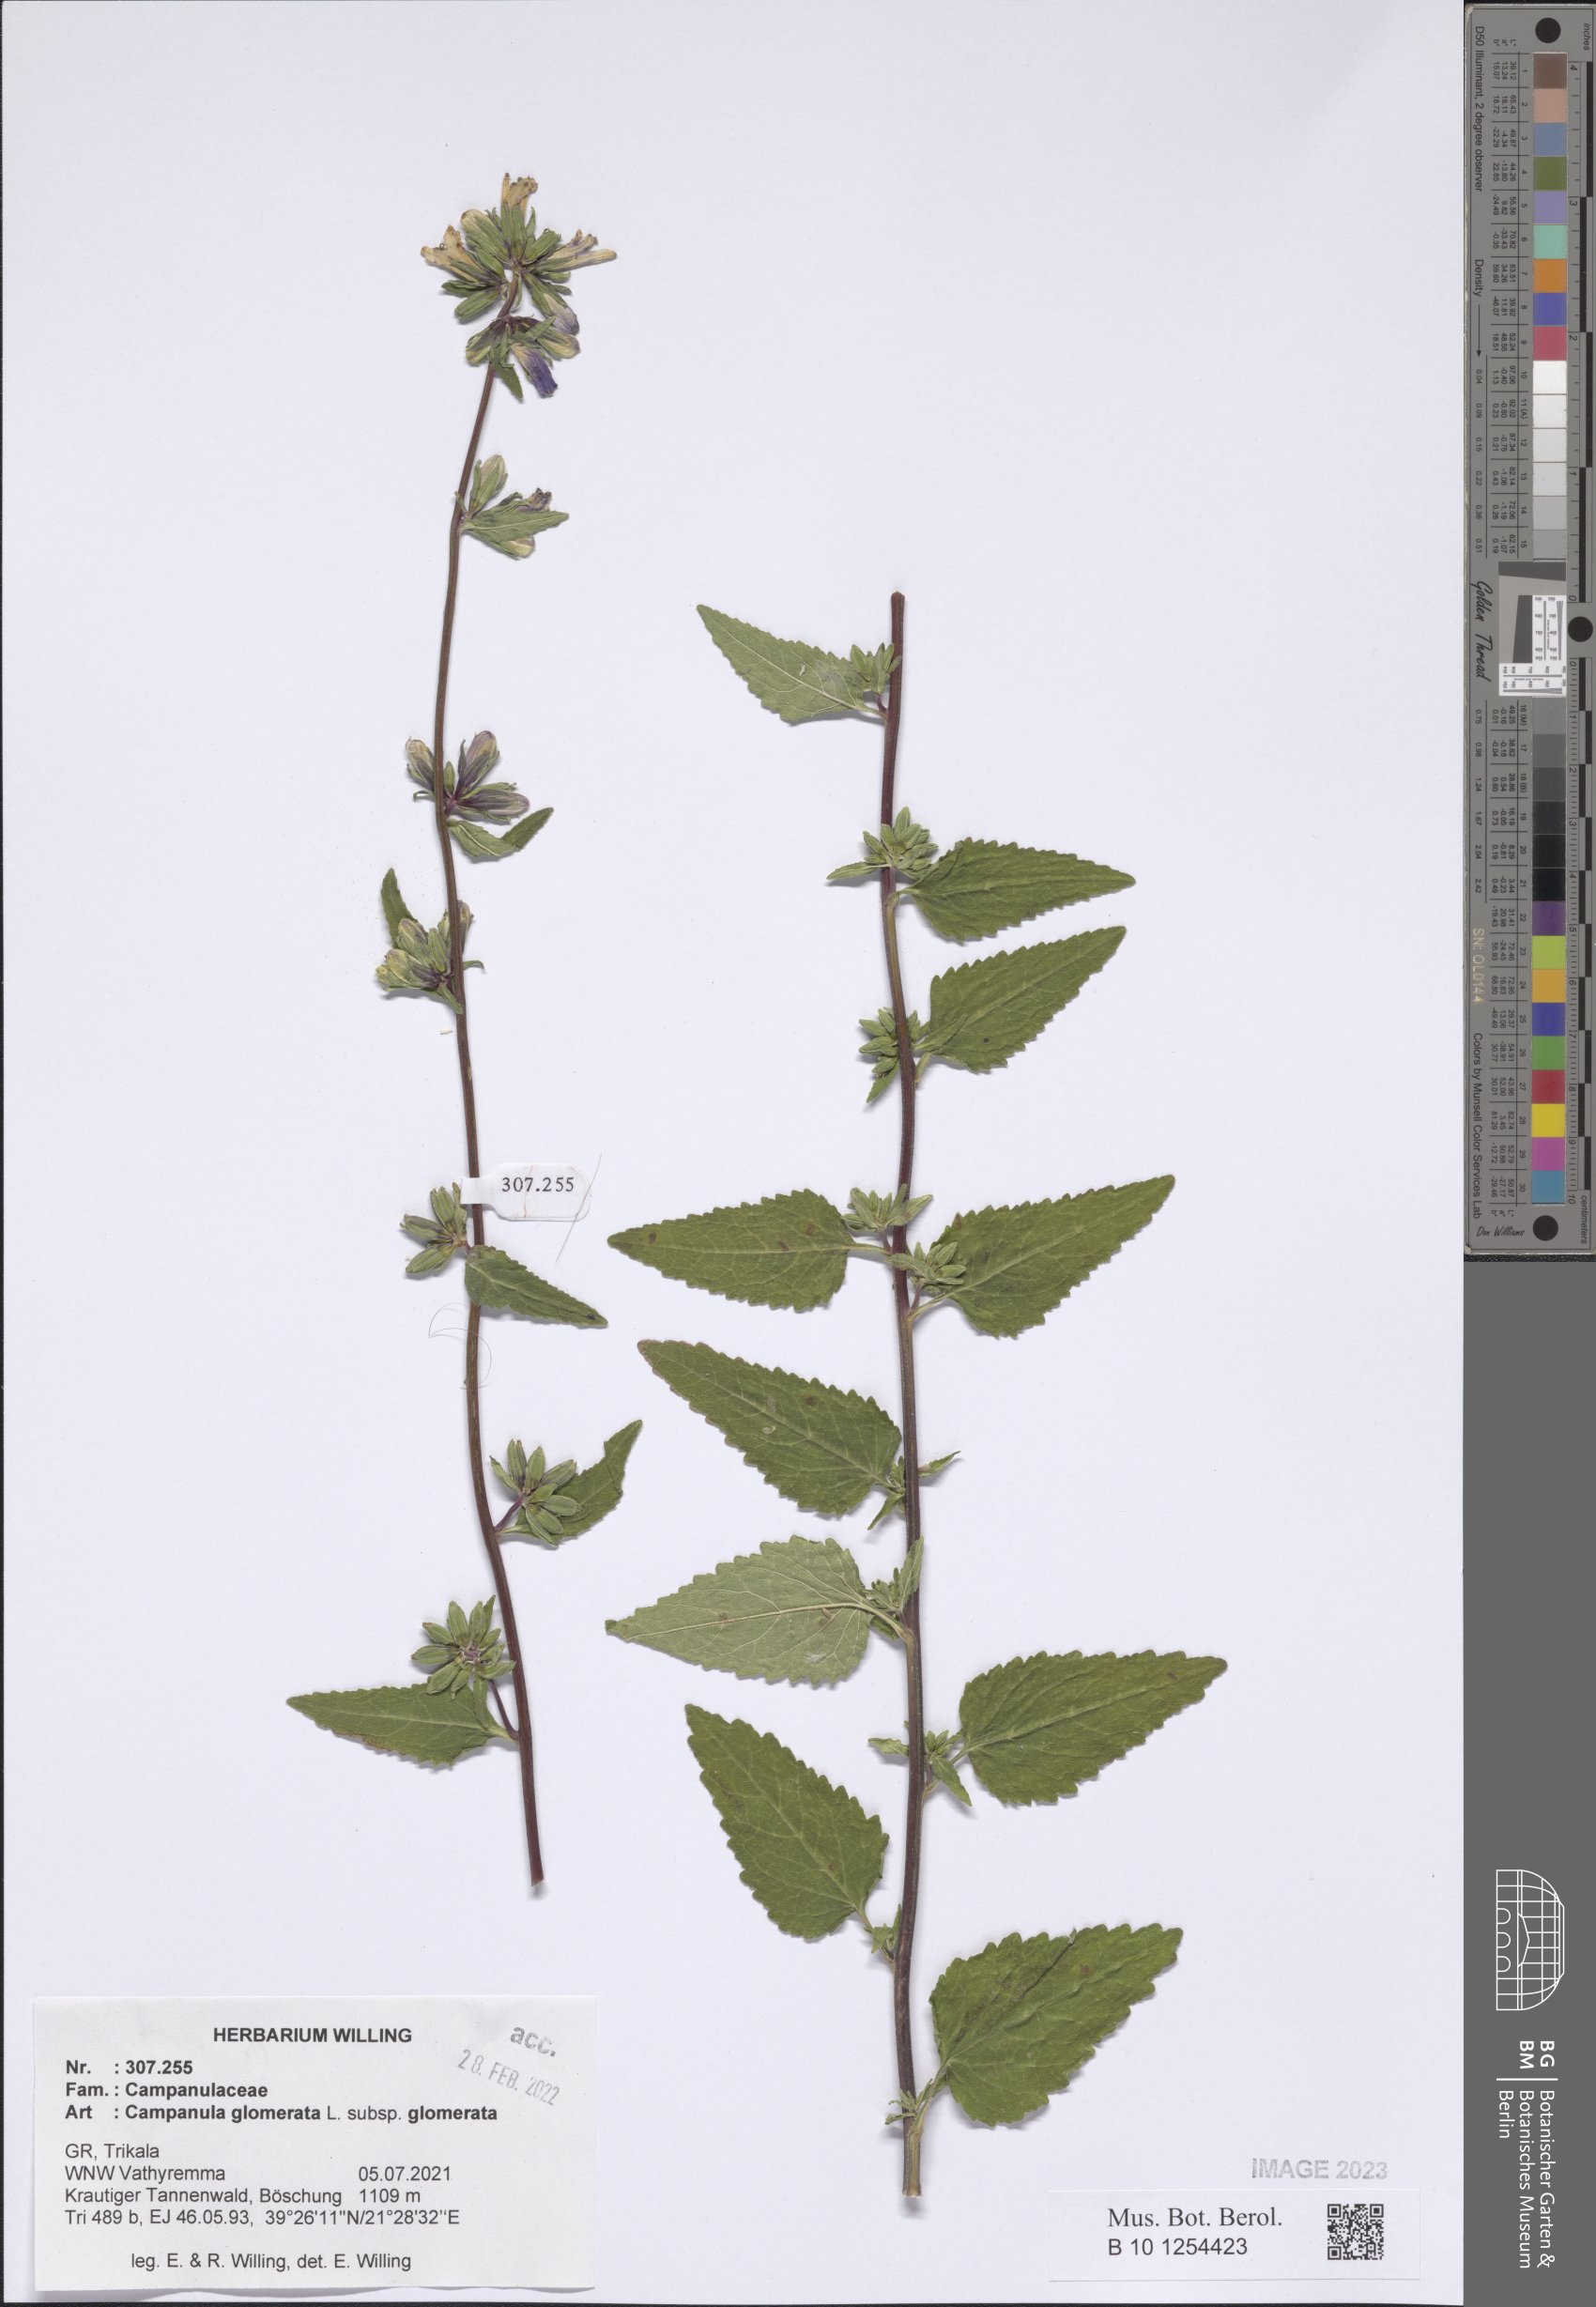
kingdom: Plantae
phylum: Tracheophyta
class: Magnoliopsida
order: Asterales
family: Campanulaceae
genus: Campanula
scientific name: Campanula glomerata
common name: Clustered bellflower
